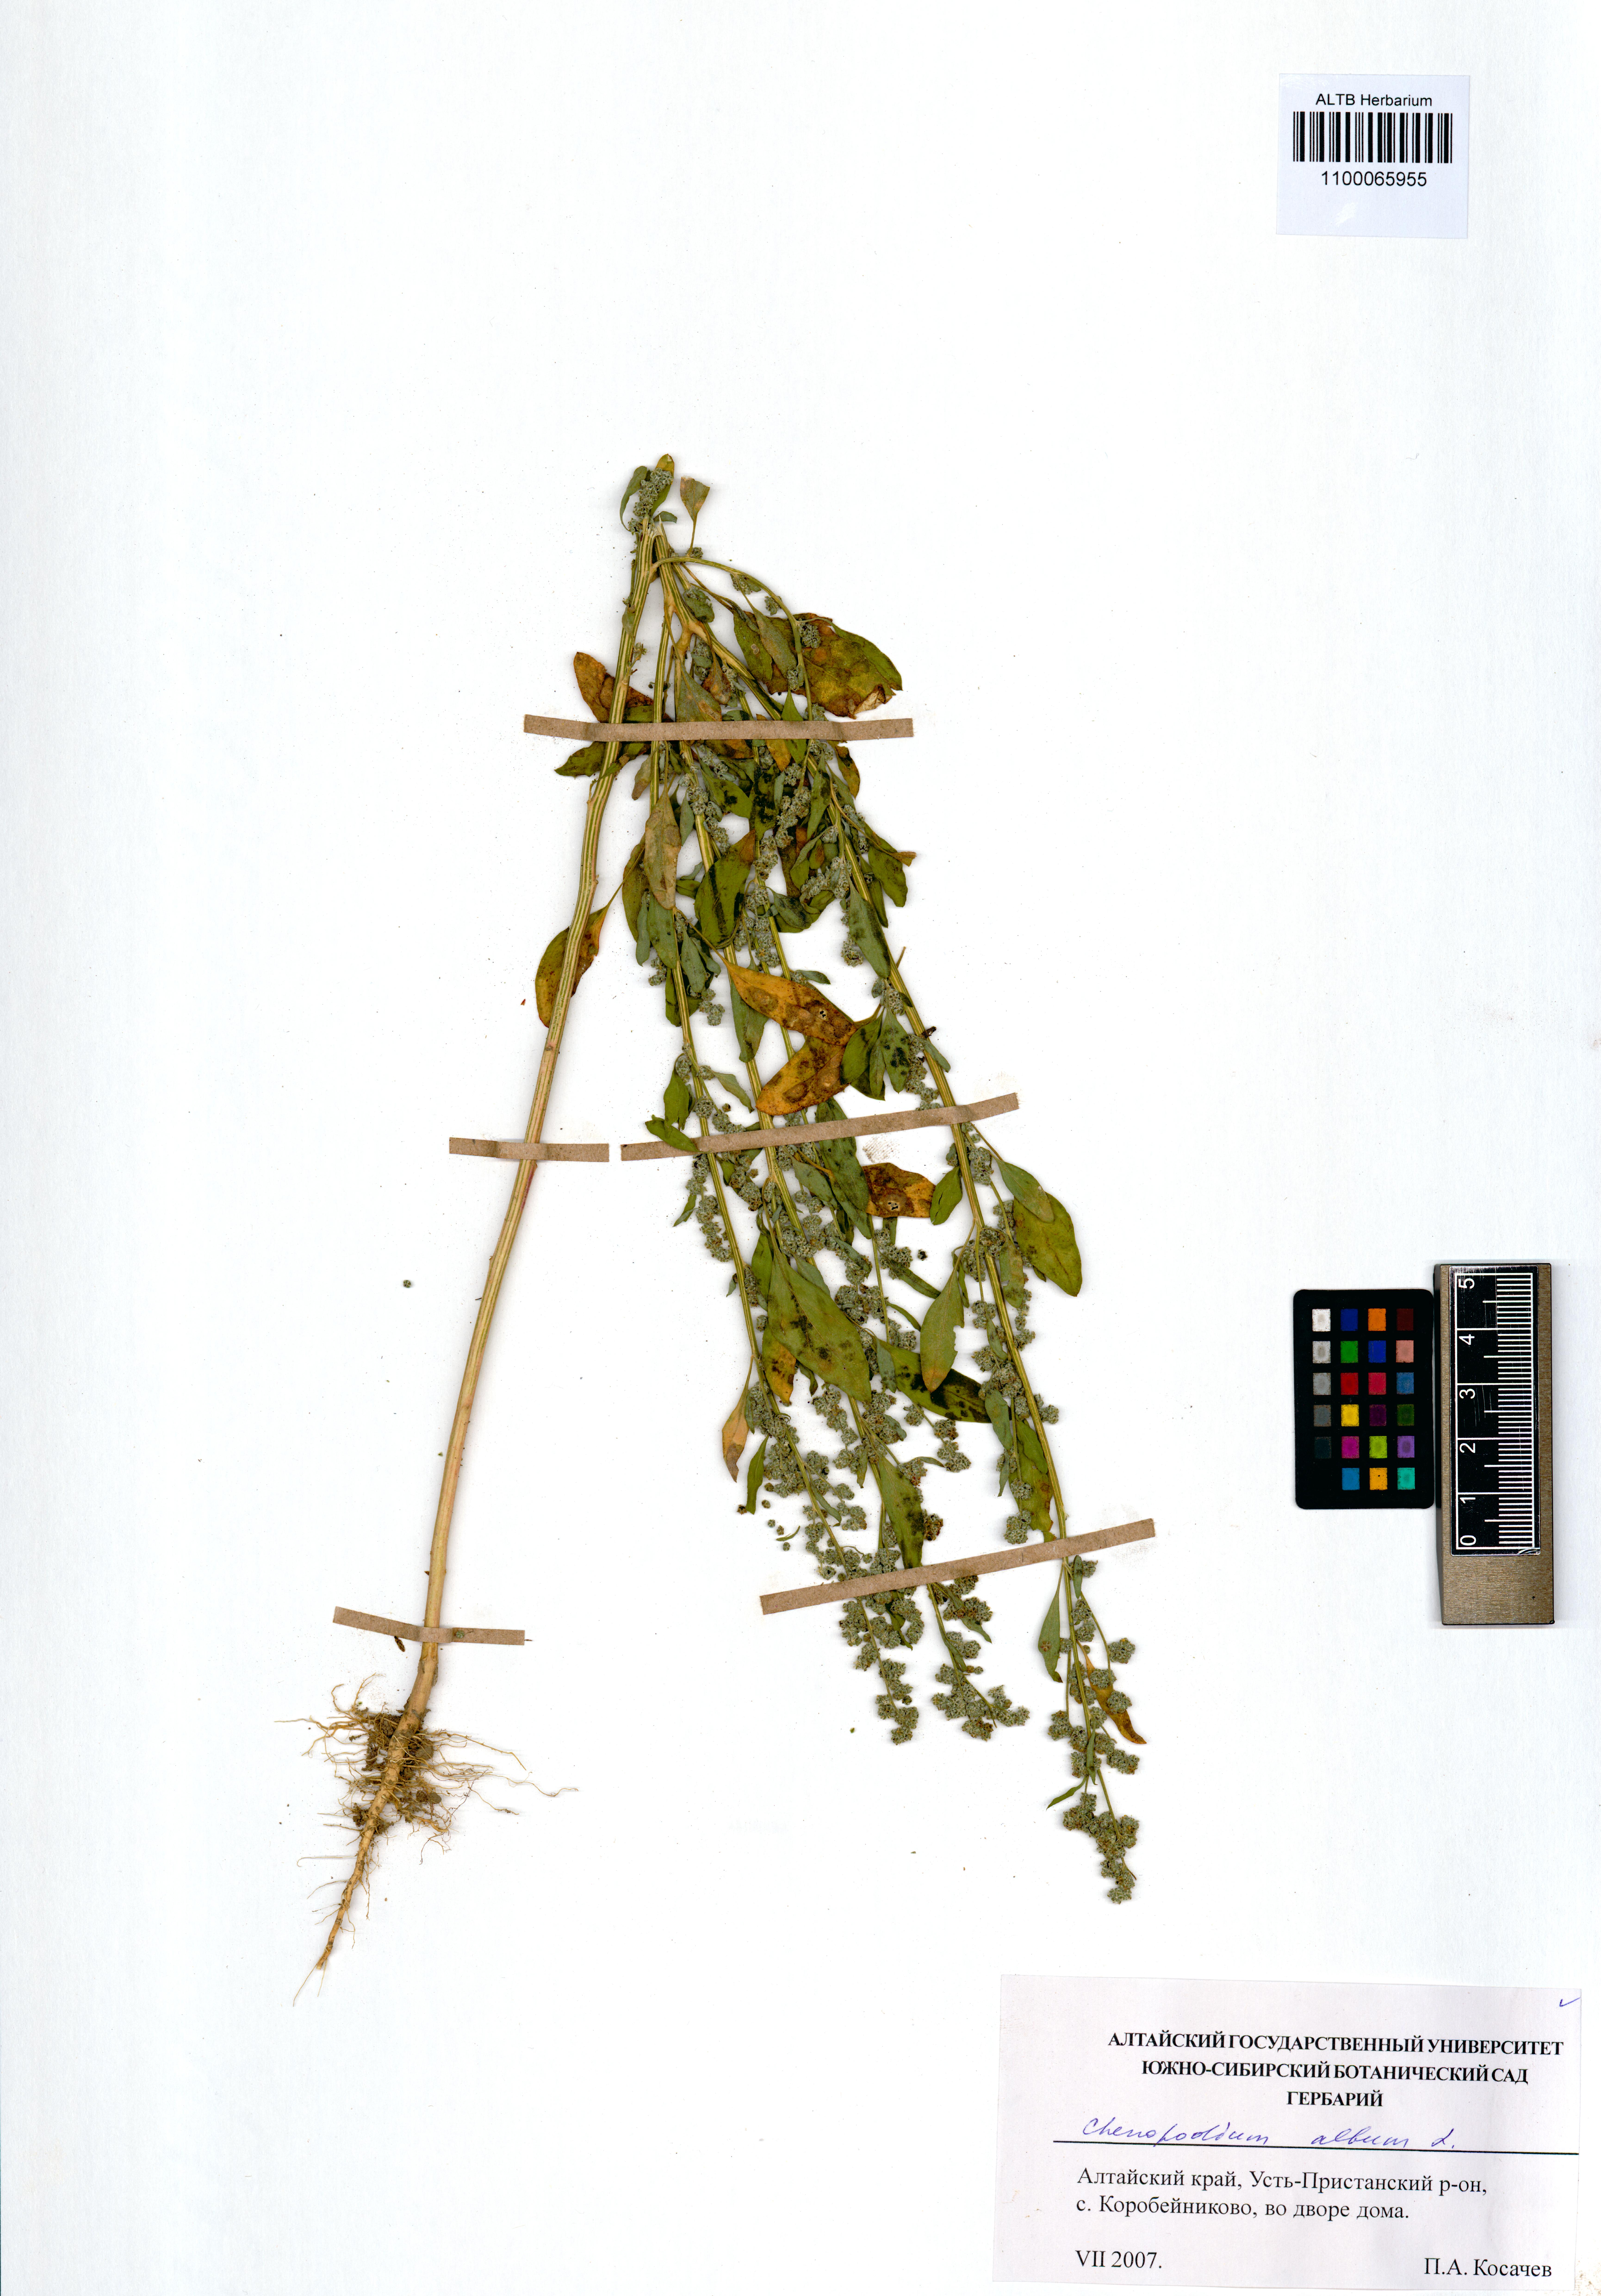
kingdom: Plantae
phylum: Tracheophyta
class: Magnoliopsida
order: Caryophyllales
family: Amaranthaceae
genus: Chenopodium
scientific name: Chenopodium album
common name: Fat-hen
